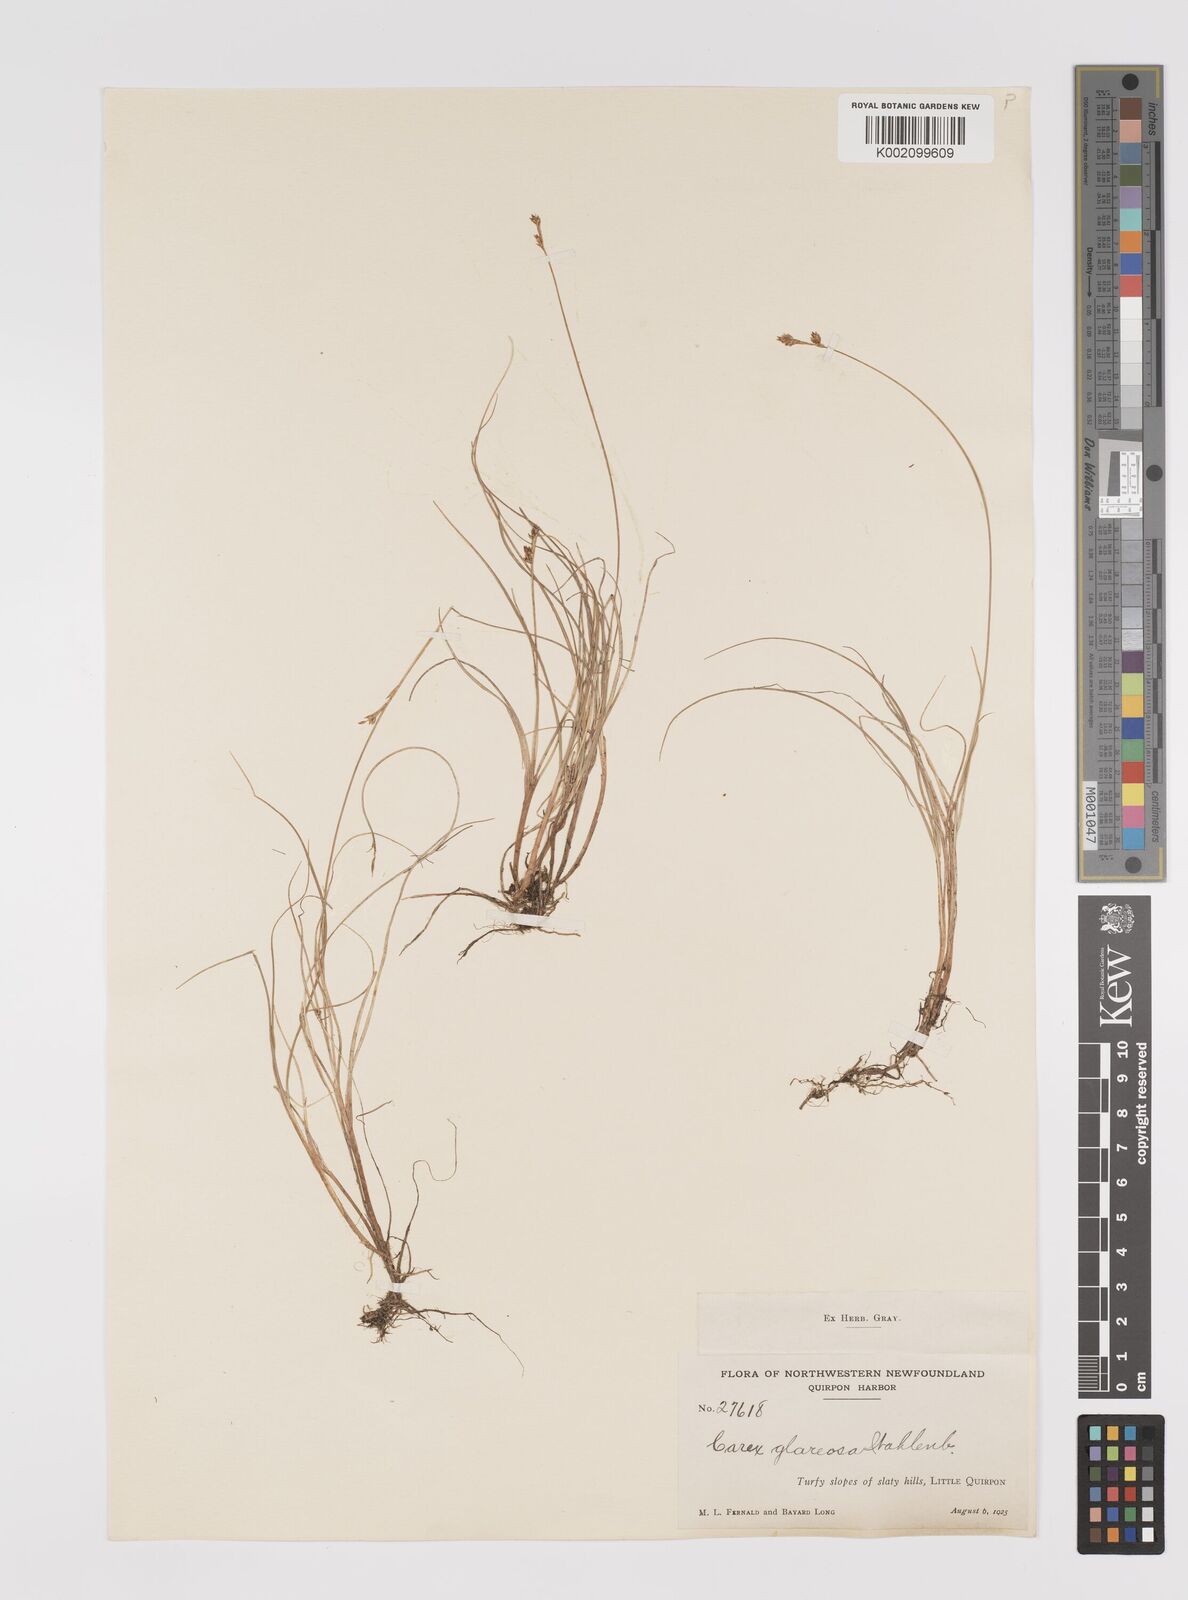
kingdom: Plantae
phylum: Tracheophyta
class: Liliopsida
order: Poales
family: Cyperaceae
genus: Carex
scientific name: Carex glareosa
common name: Clustered sedge
